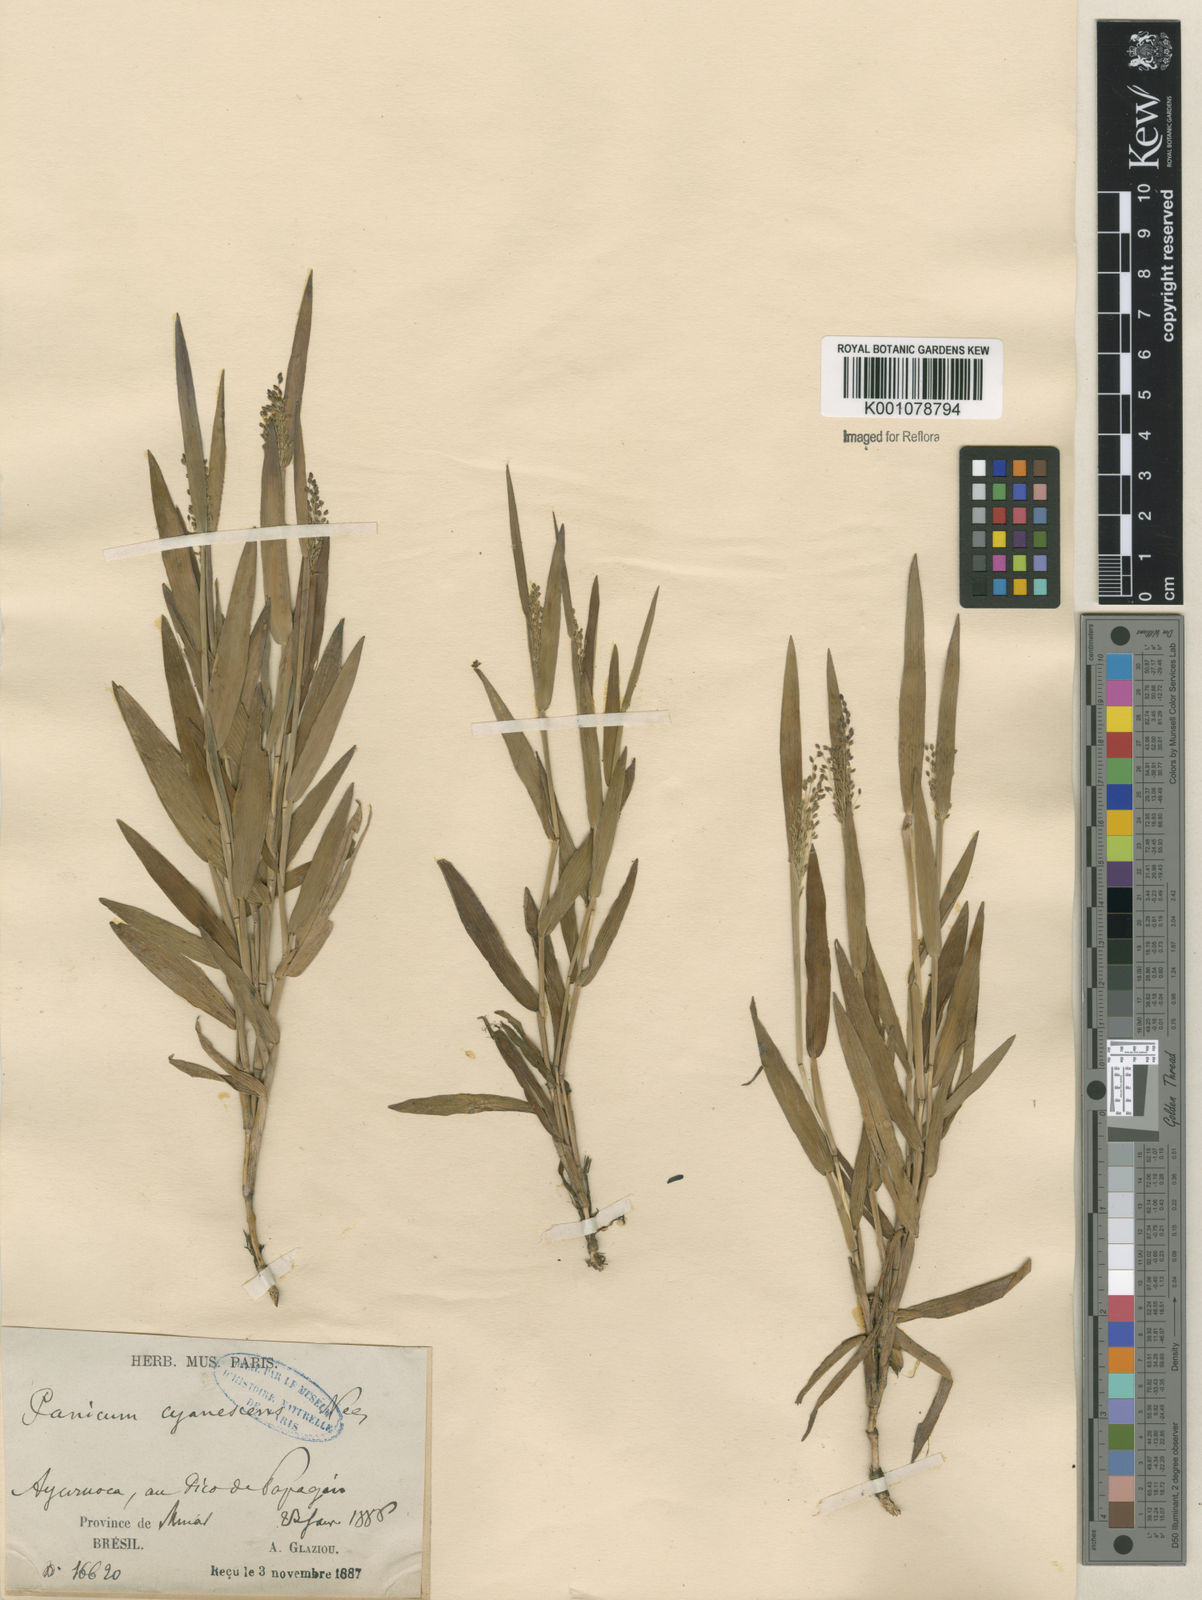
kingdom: Plantae
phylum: Tracheophyta
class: Liliopsida
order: Poales
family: Poaceae
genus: Trichanthecium
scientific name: Trichanthecium pseudisachne
